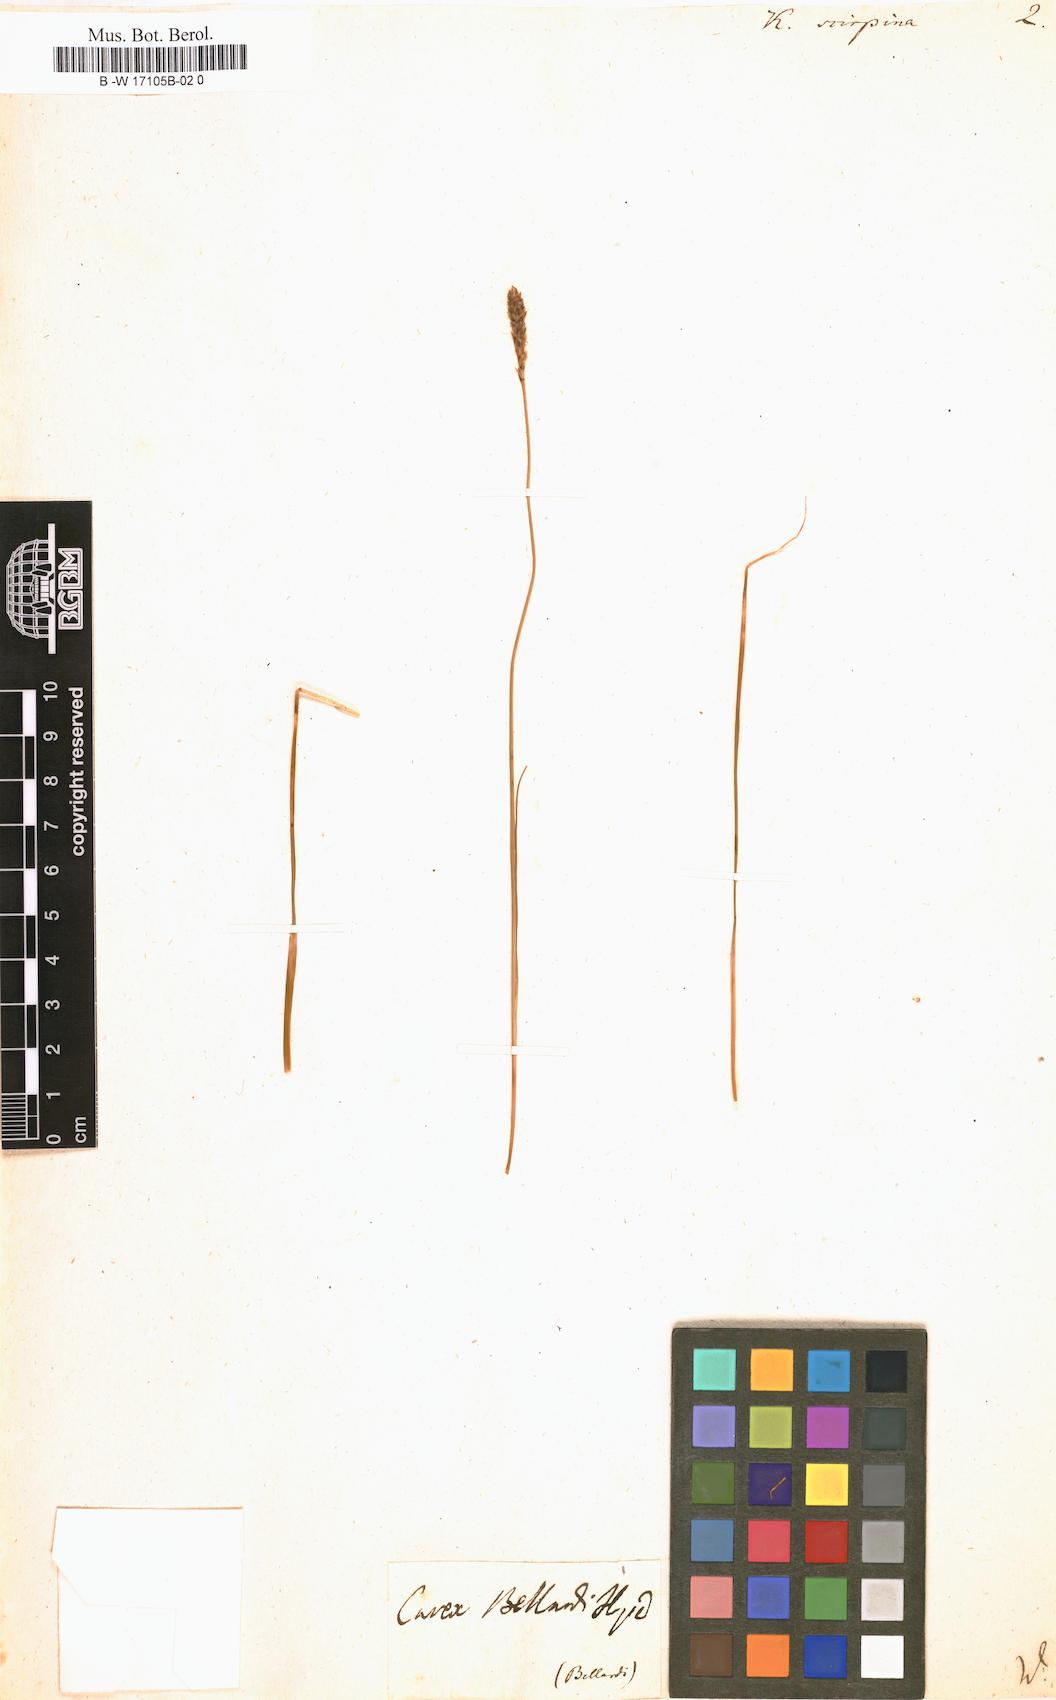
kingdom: Plantae
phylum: Tracheophyta
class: Liliopsida
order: Poales
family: Cyperaceae
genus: Carex
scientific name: Carex myosuroides
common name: Bellard's bog sedge
